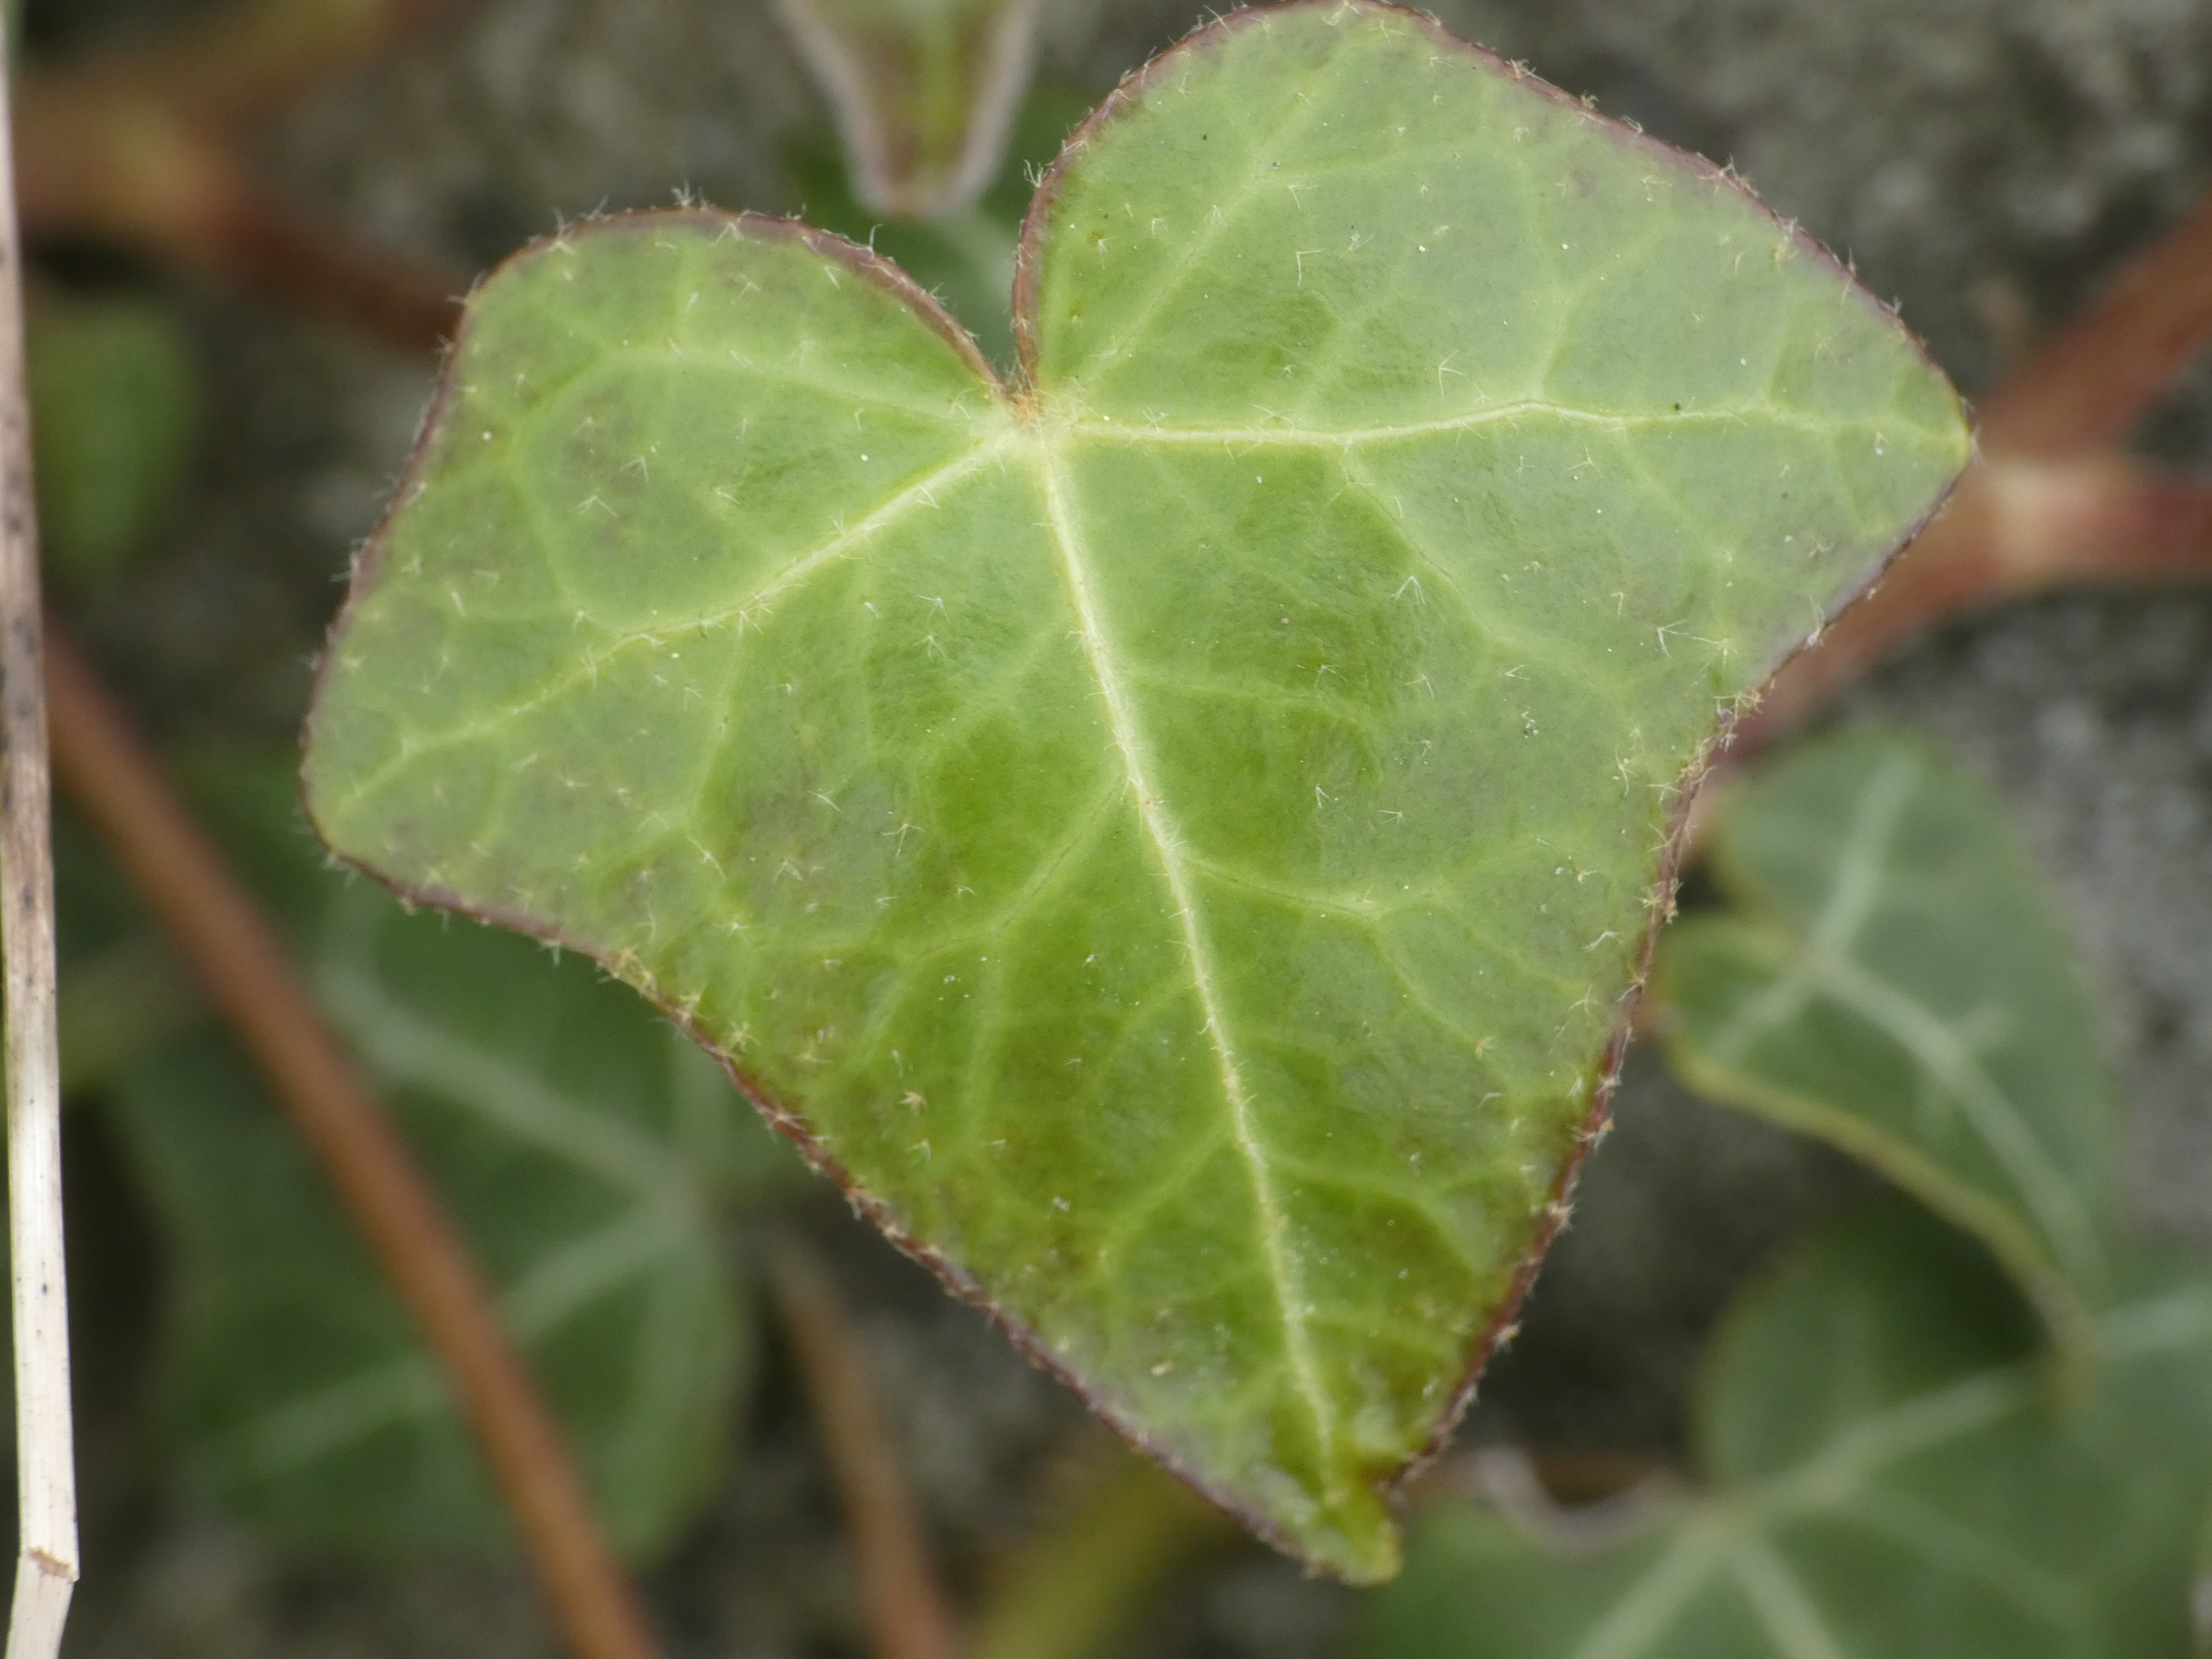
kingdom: Plantae
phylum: Tracheophyta
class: Magnoliopsida
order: Apiales
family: Araliaceae
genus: Hedera
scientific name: Hedera helix
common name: Vedbend
